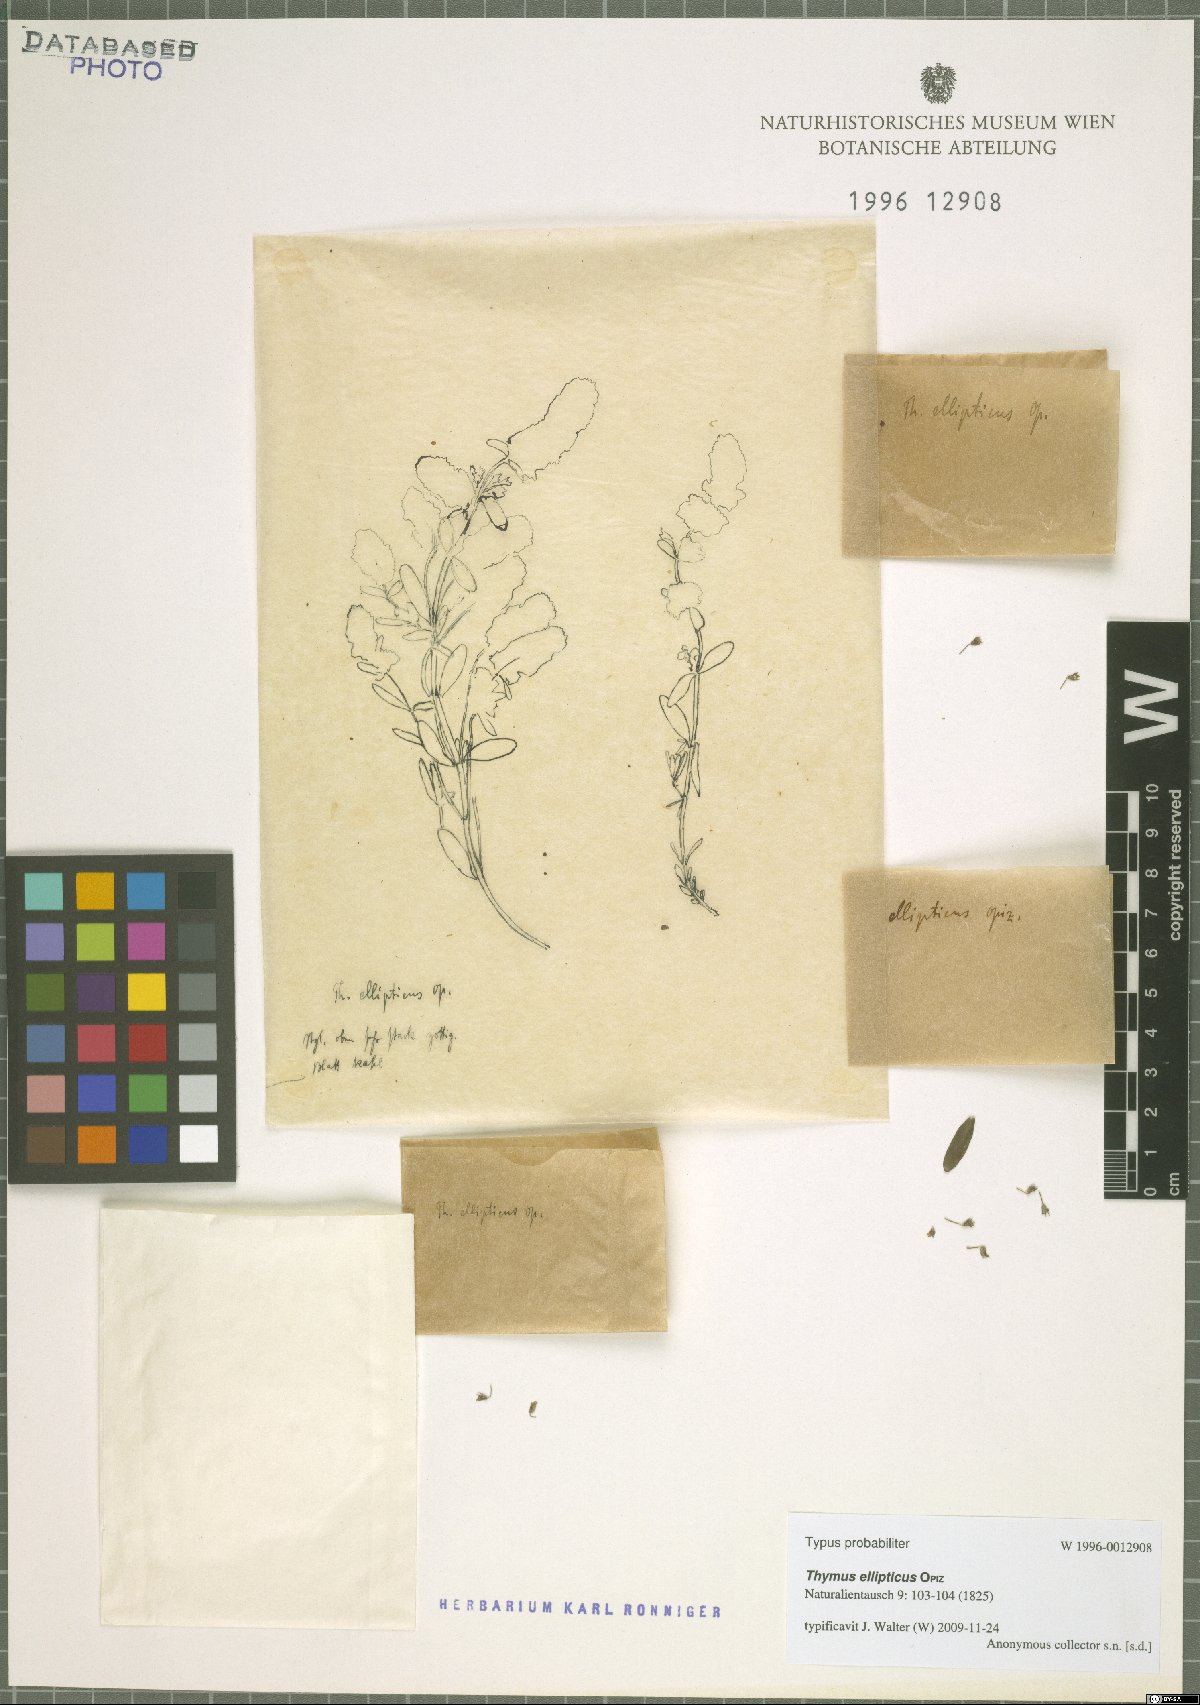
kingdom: Plantae
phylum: Tracheophyta
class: Magnoliopsida
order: Lamiales
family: Lamiaceae
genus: Thymus
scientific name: Thymus serpyllum
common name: Breckland thyme
